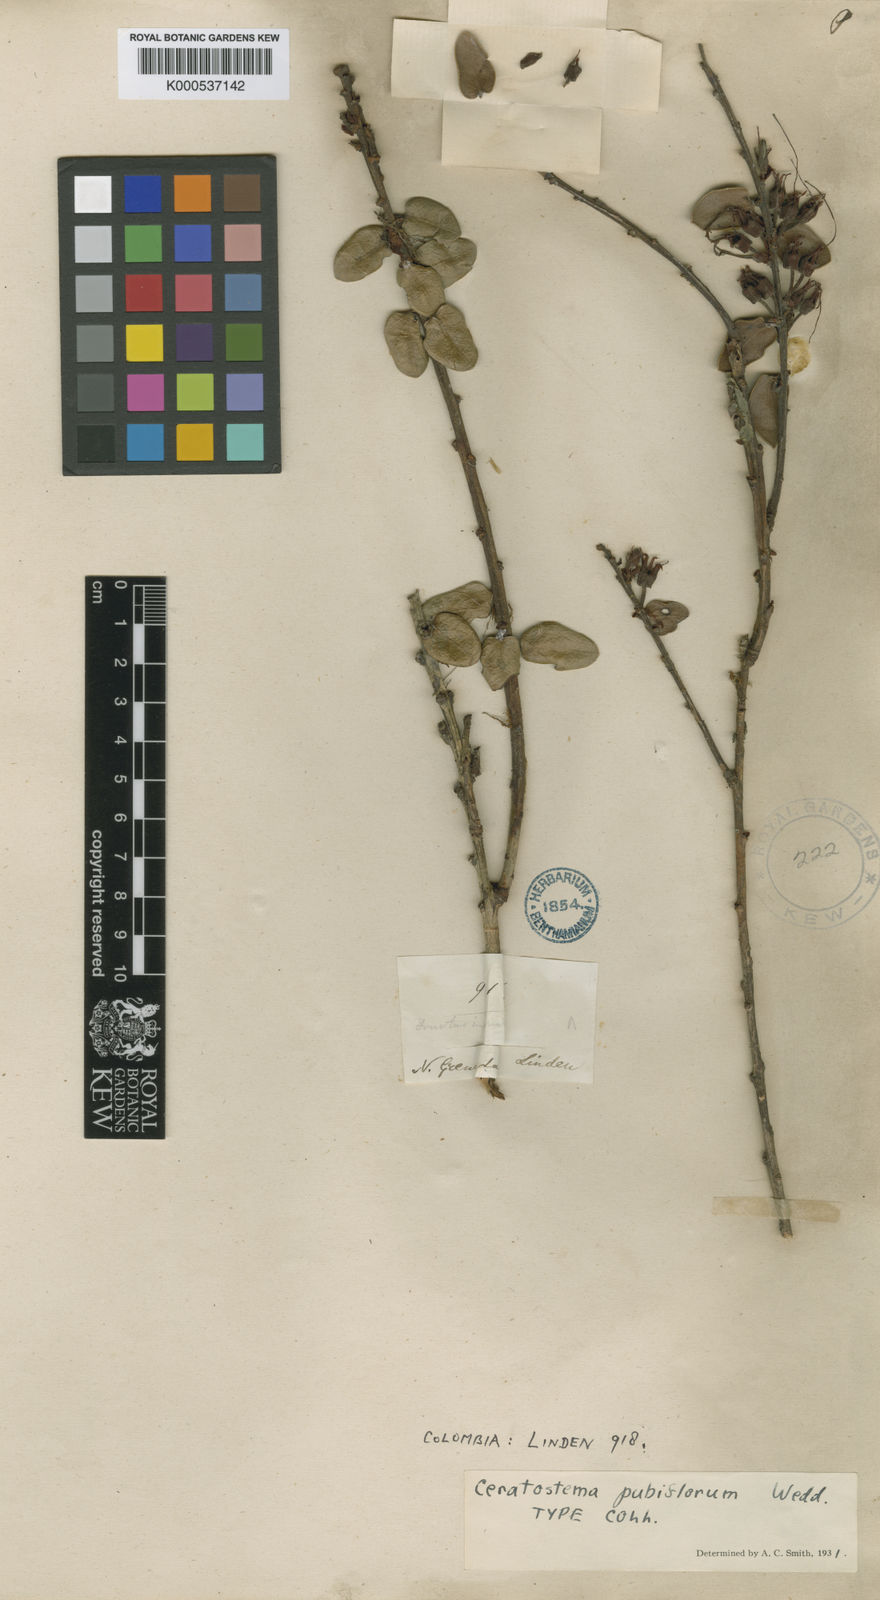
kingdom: Plantae
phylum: Tracheophyta
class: Magnoliopsida
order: Ericales
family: Ericaceae
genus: Plutarchia
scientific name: Plutarchia pubiflora
